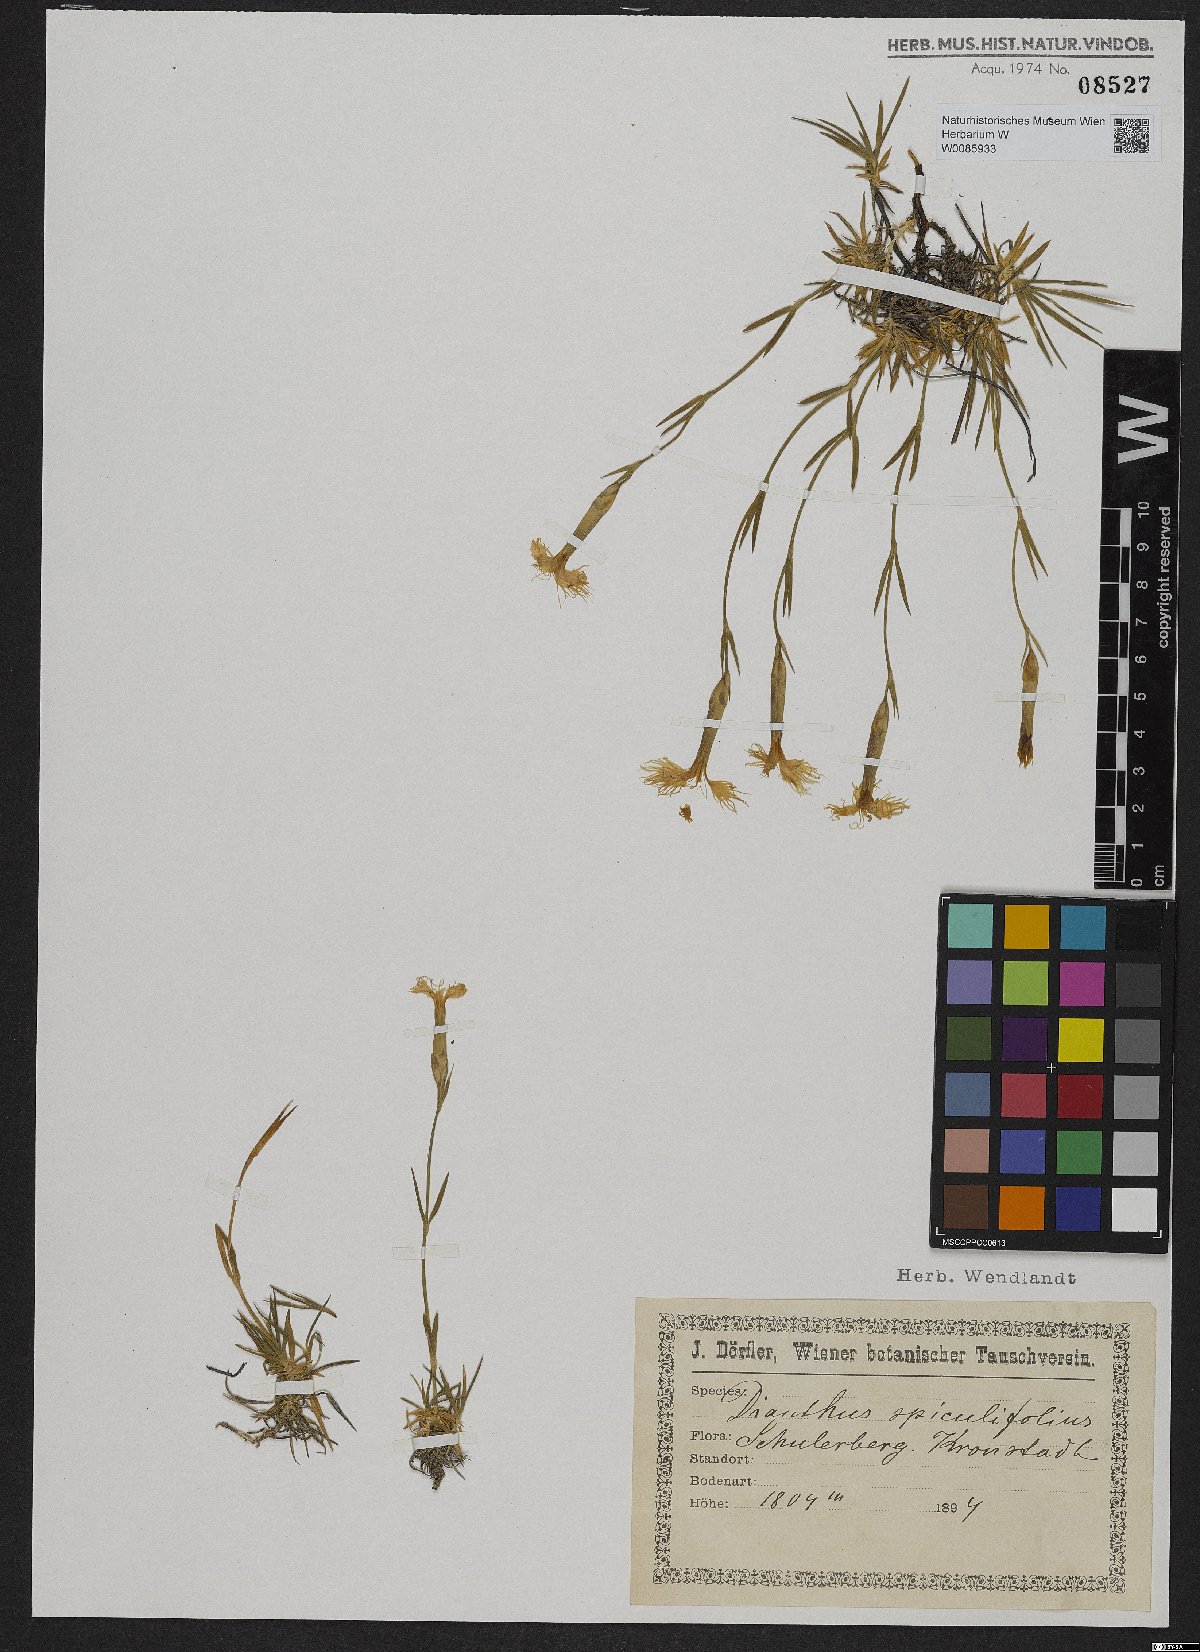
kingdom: Plantae
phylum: Tracheophyta
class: Magnoliopsida
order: Caryophyllales
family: Caryophyllaceae
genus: Dianthus
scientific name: Dianthus spiculifolius
